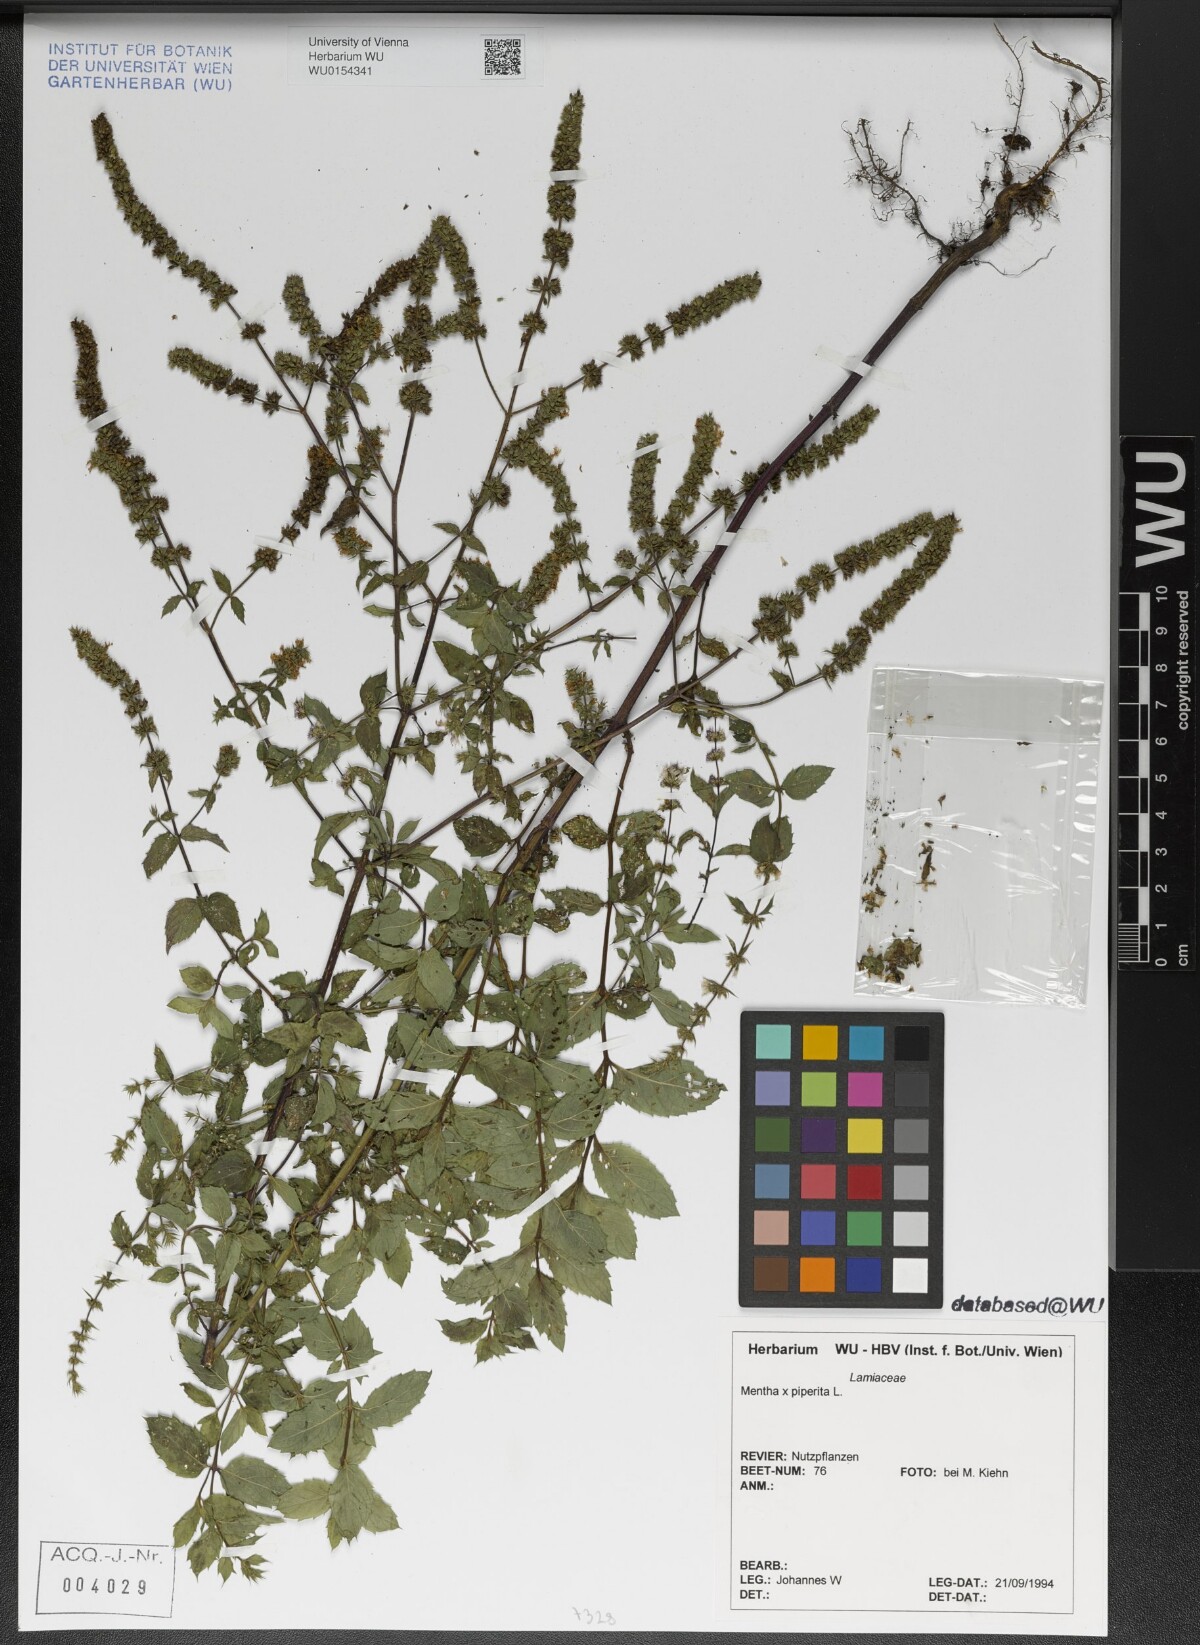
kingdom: Plantae
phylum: Tracheophyta
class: Magnoliopsida
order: Lamiales
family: Lamiaceae
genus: Mentha
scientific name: Mentha piperita
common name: Peppermint
